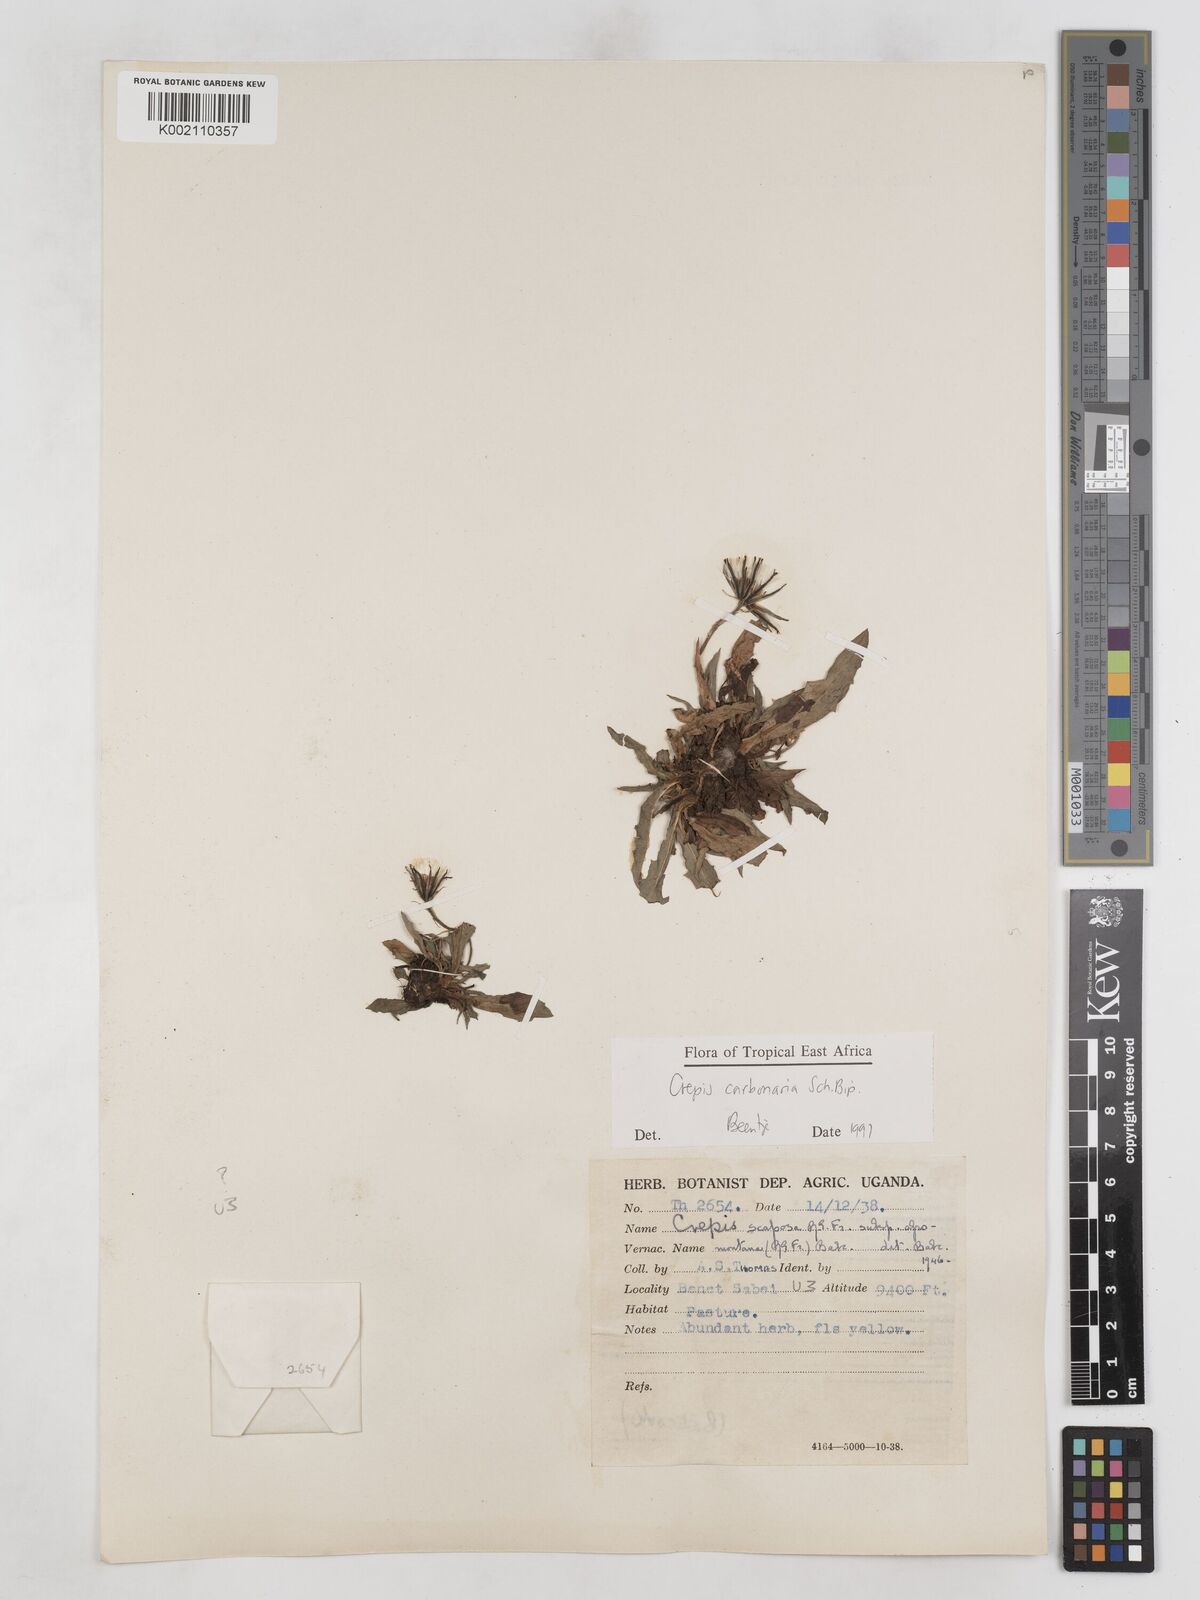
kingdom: Plantae
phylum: Tracheophyta
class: Magnoliopsida
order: Asterales
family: Asteraceae
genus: Crepis
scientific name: Crepis carbonaria
